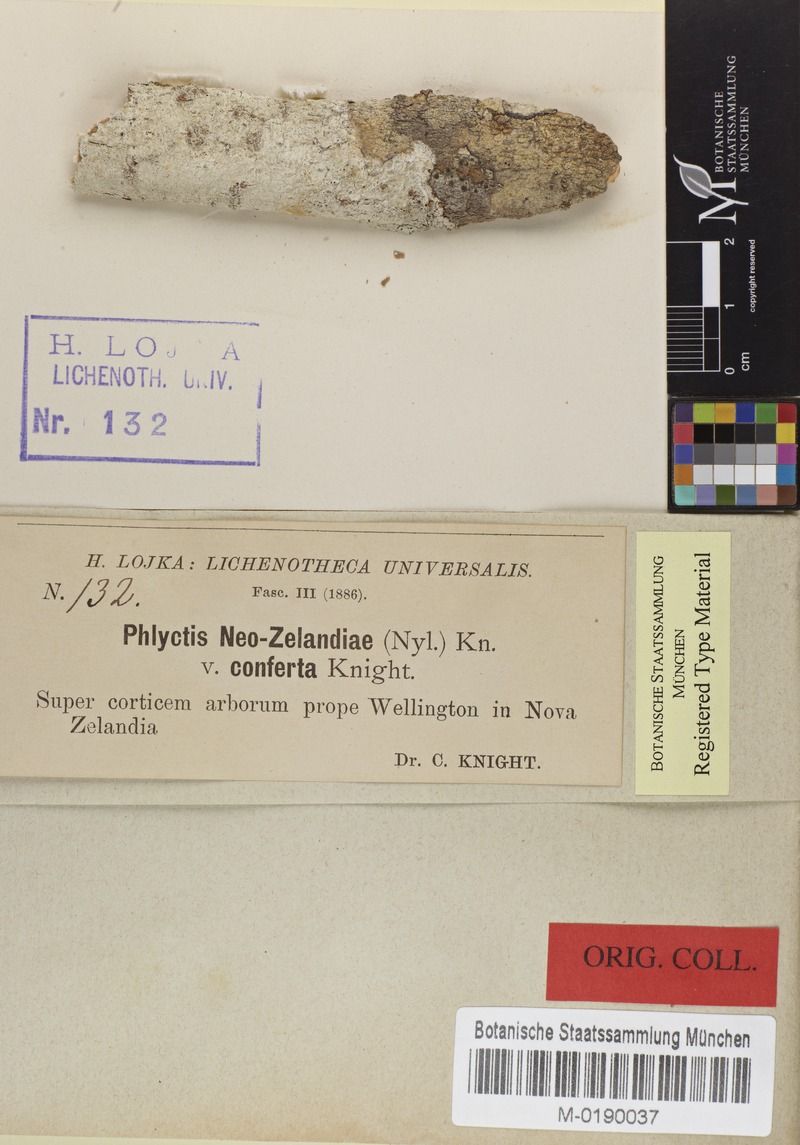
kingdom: Fungi
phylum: Ascomycota
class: Lecanoromycetes
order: Ostropales
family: Phlyctidaceae
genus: Phlyctis
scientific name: Phlyctis
